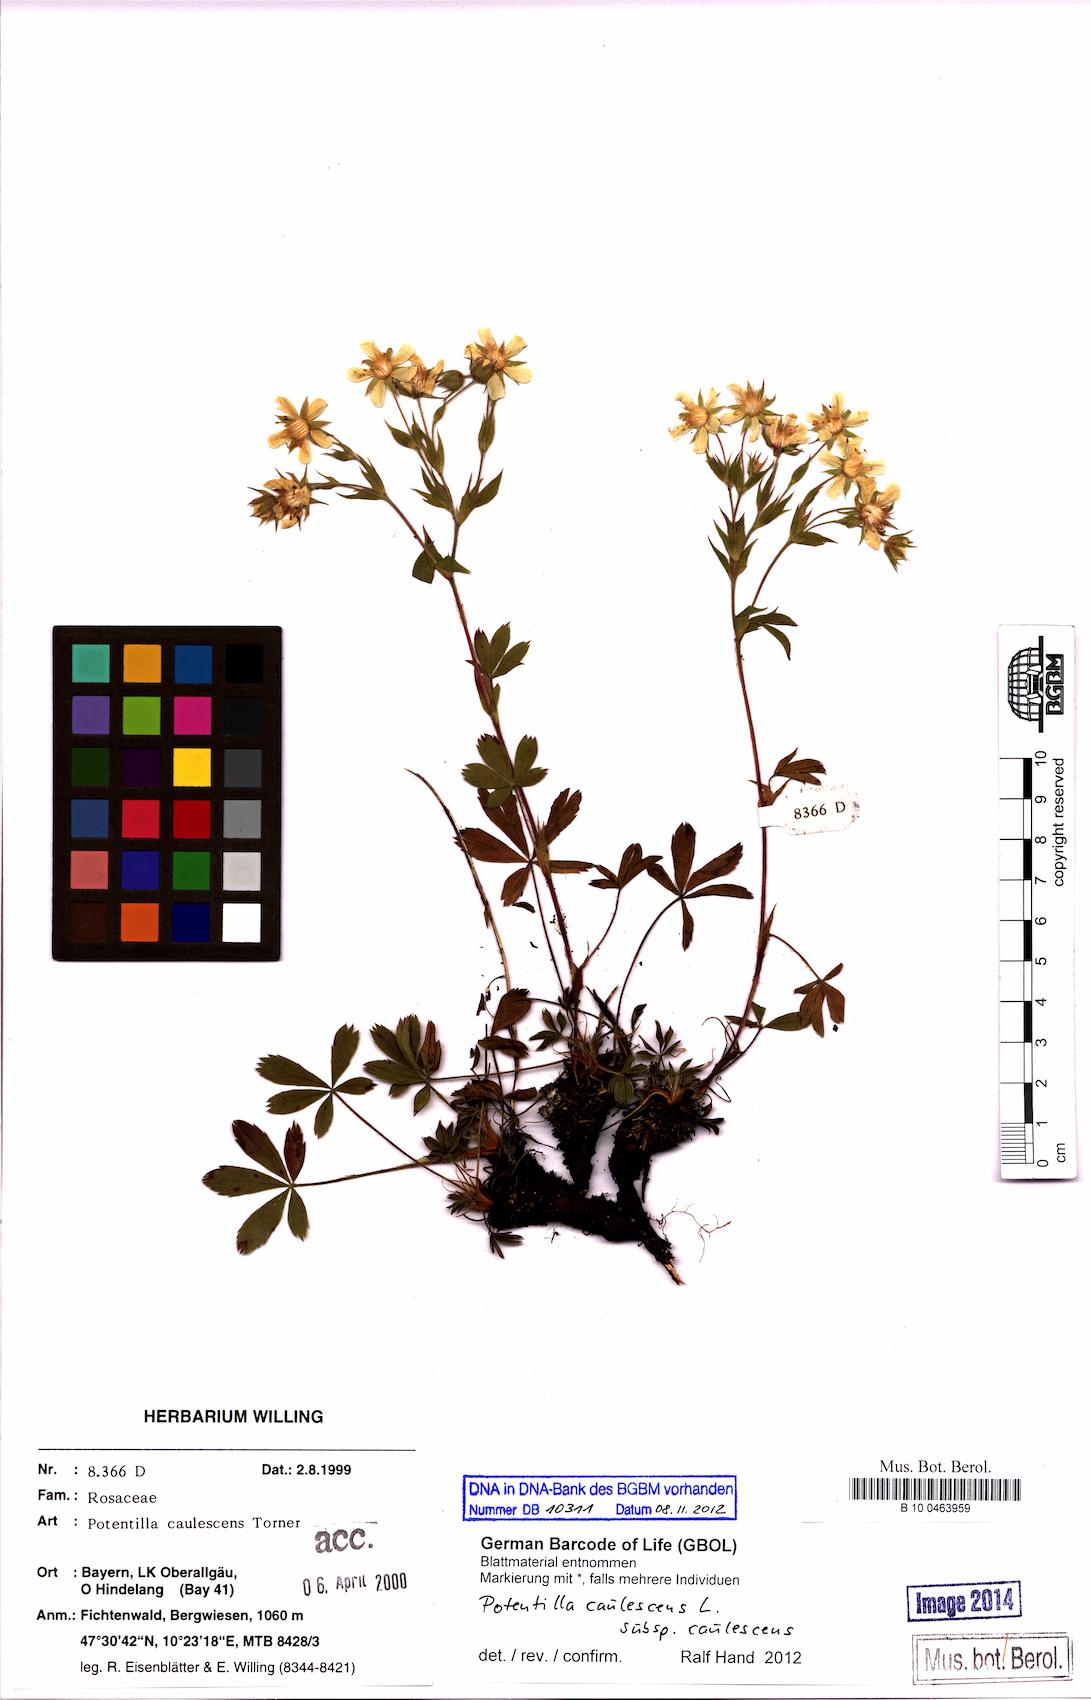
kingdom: Plantae
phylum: Tracheophyta
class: Magnoliopsida
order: Rosales
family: Rosaceae
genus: Potentilla
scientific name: Potentilla caulescens
